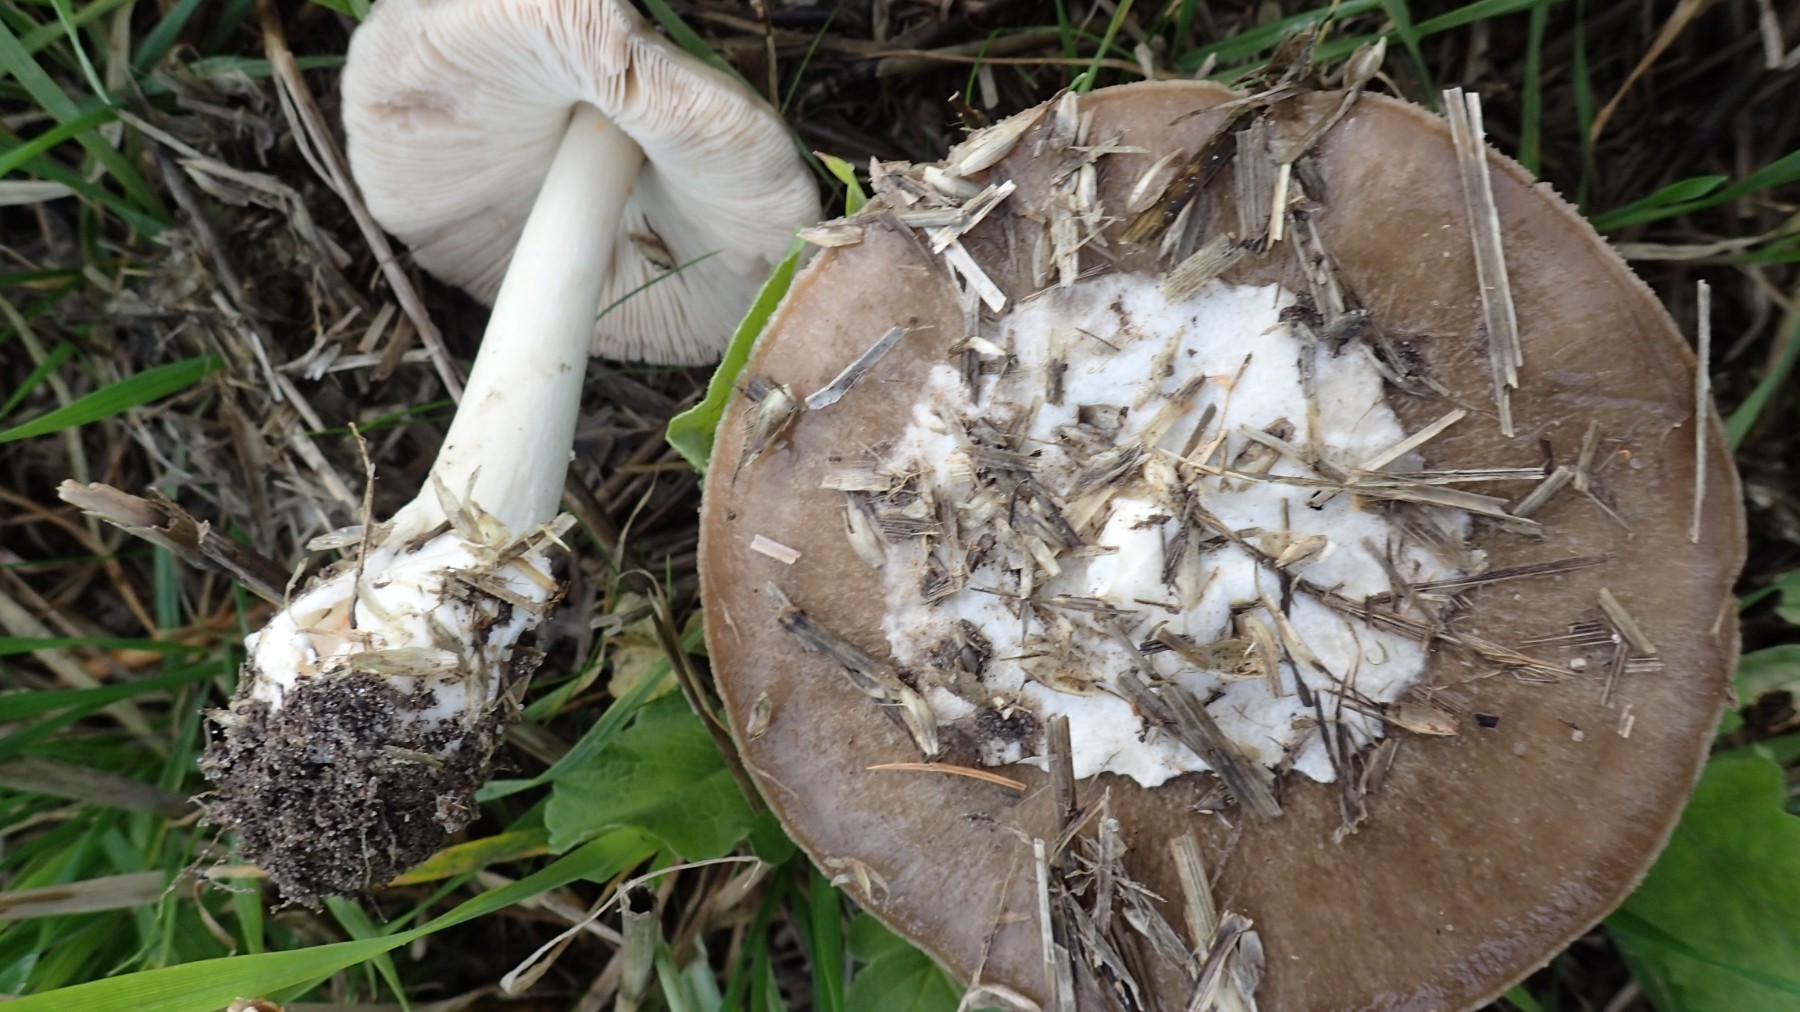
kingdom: Fungi
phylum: Basidiomycota
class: Agaricomycetes
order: Agaricales
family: Pluteaceae
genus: Volvopluteus
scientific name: Volvopluteus gloiocephalus
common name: høj posesvamp
